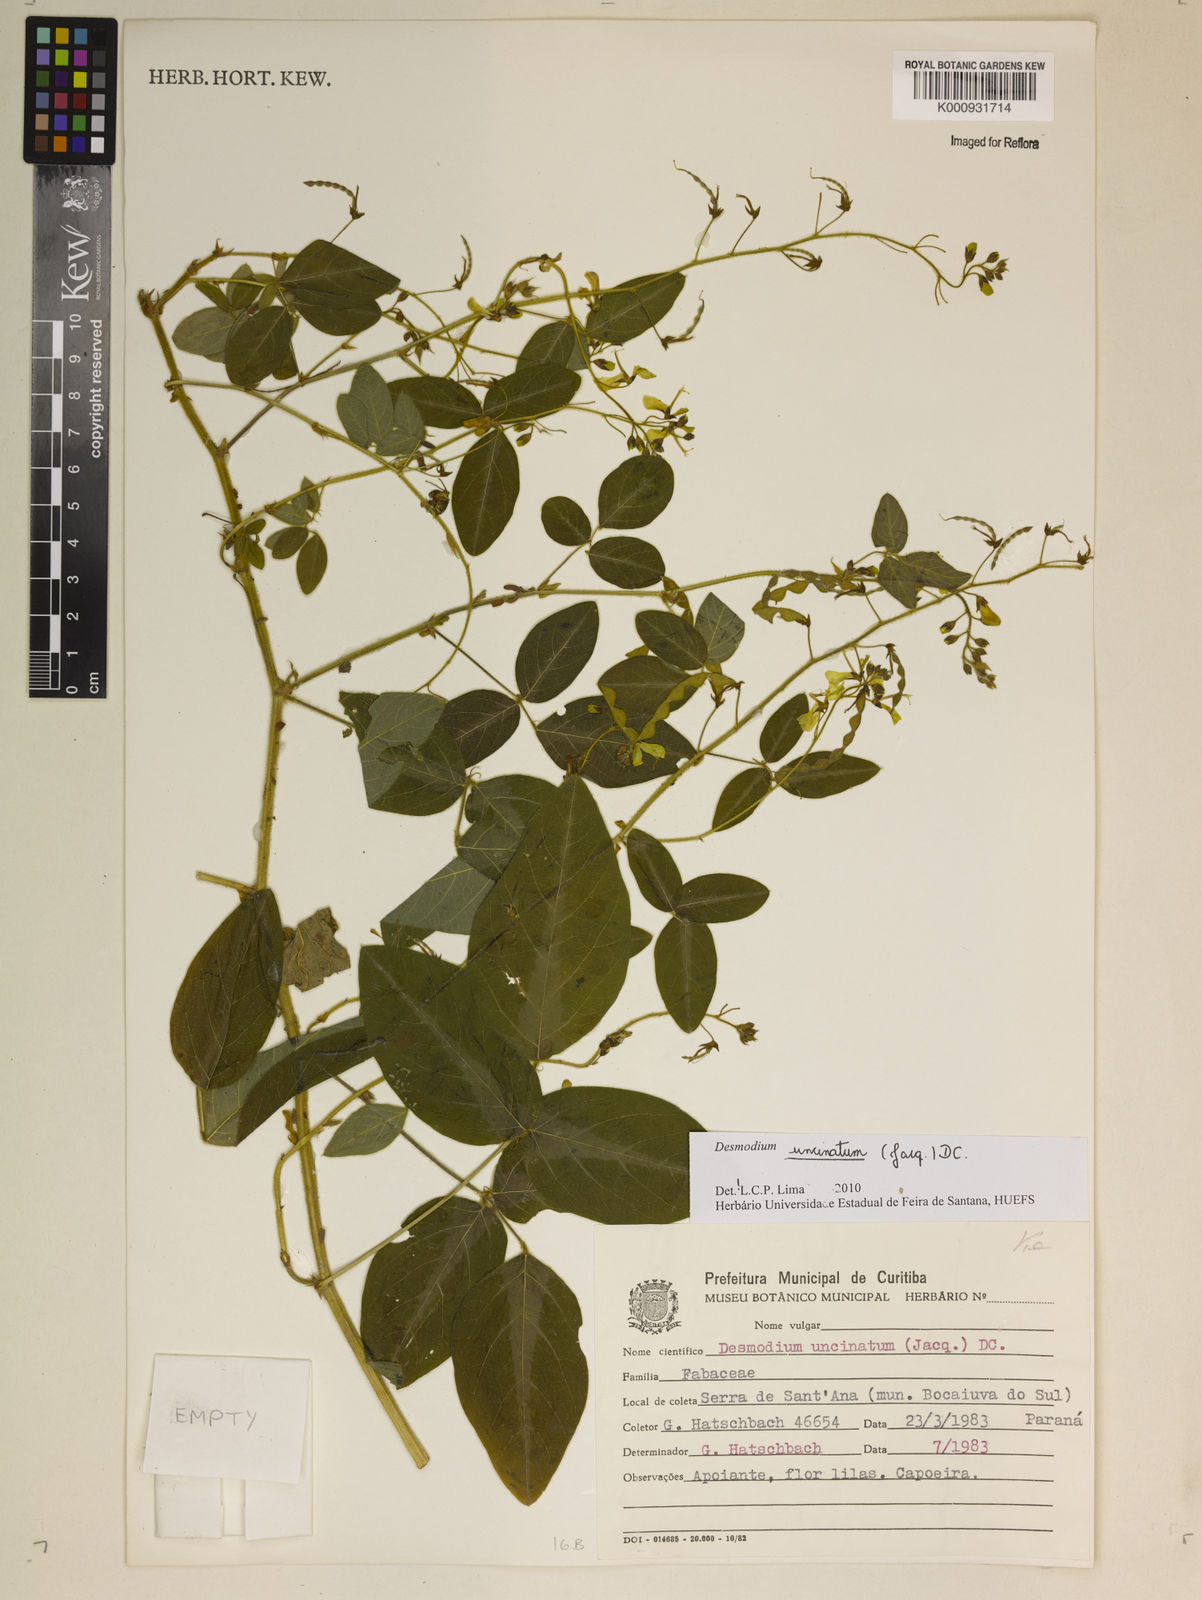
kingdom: Plantae
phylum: Tracheophyta
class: Magnoliopsida
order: Fabales
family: Fabaceae
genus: Desmodium
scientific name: Desmodium uncinatum
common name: Silverleaf desmodium
